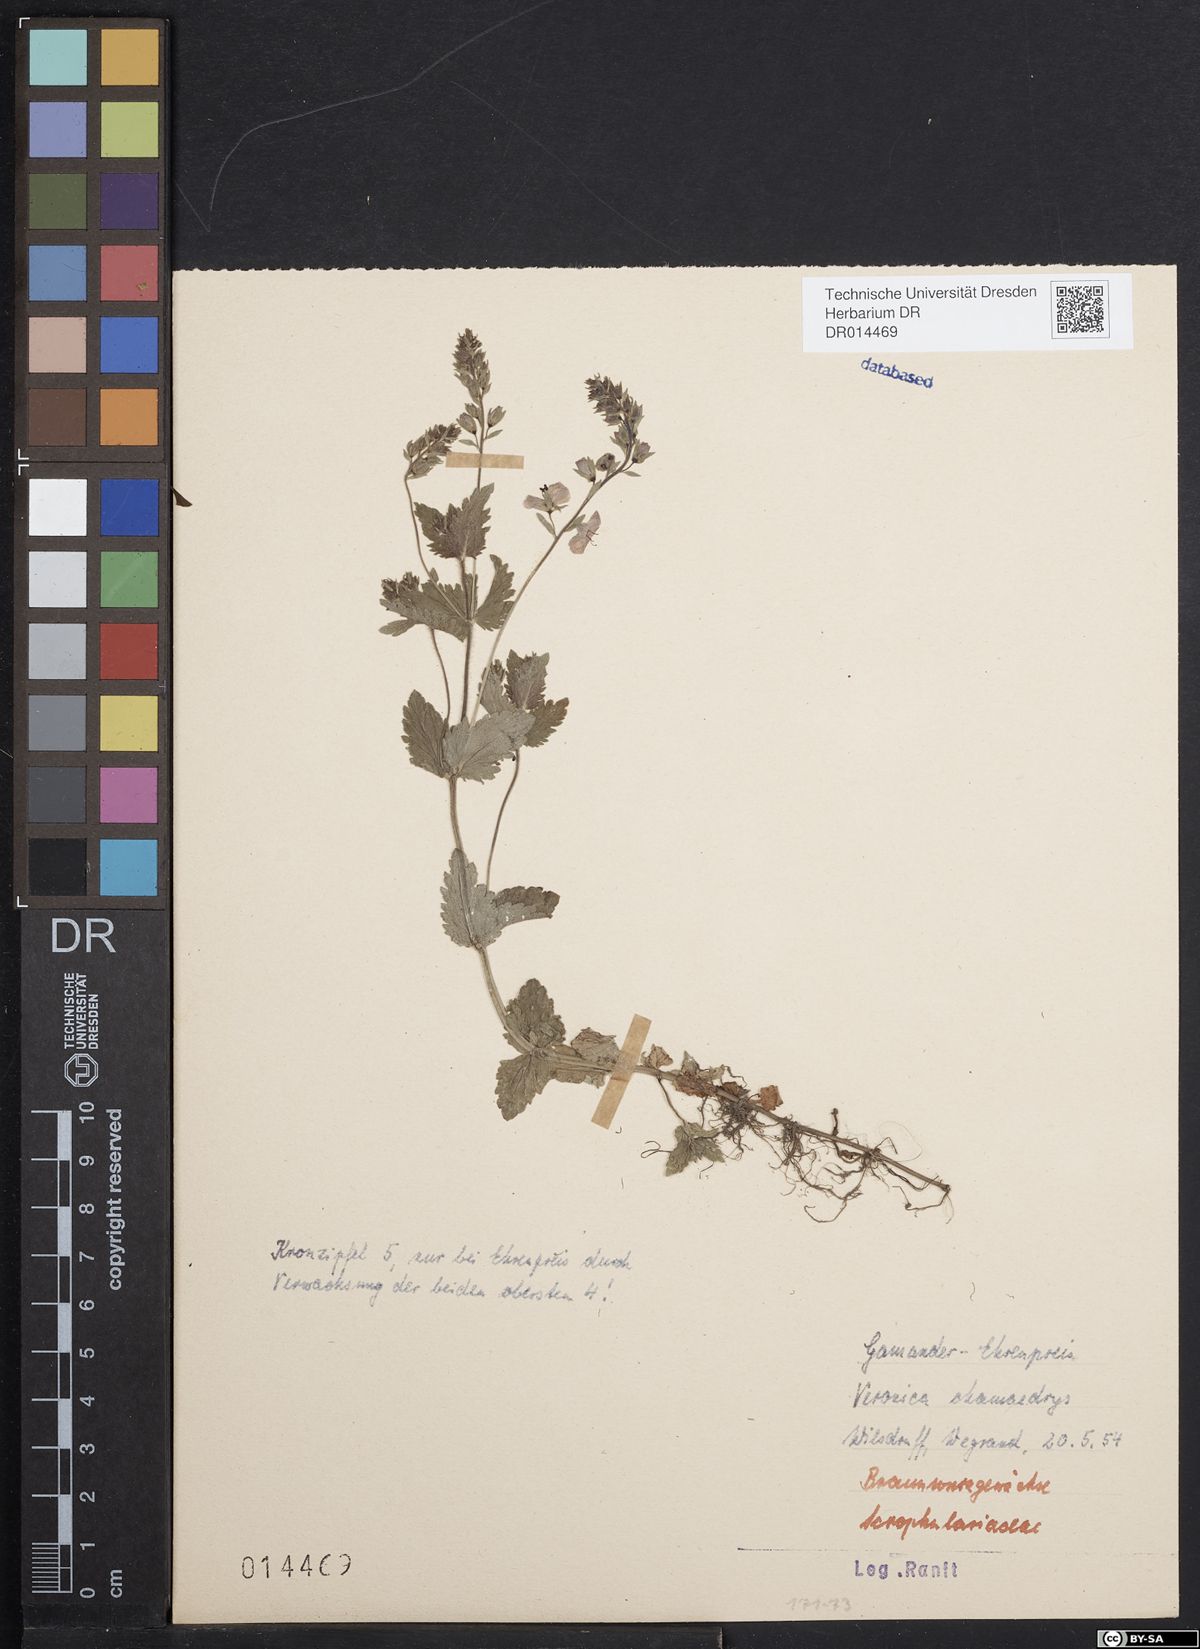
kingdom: Plantae
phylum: Tracheophyta
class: Magnoliopsida
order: Lamiales
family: Plantaginaceae
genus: Veronica
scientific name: Veronica chamaedrys
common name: Germander speedwell
